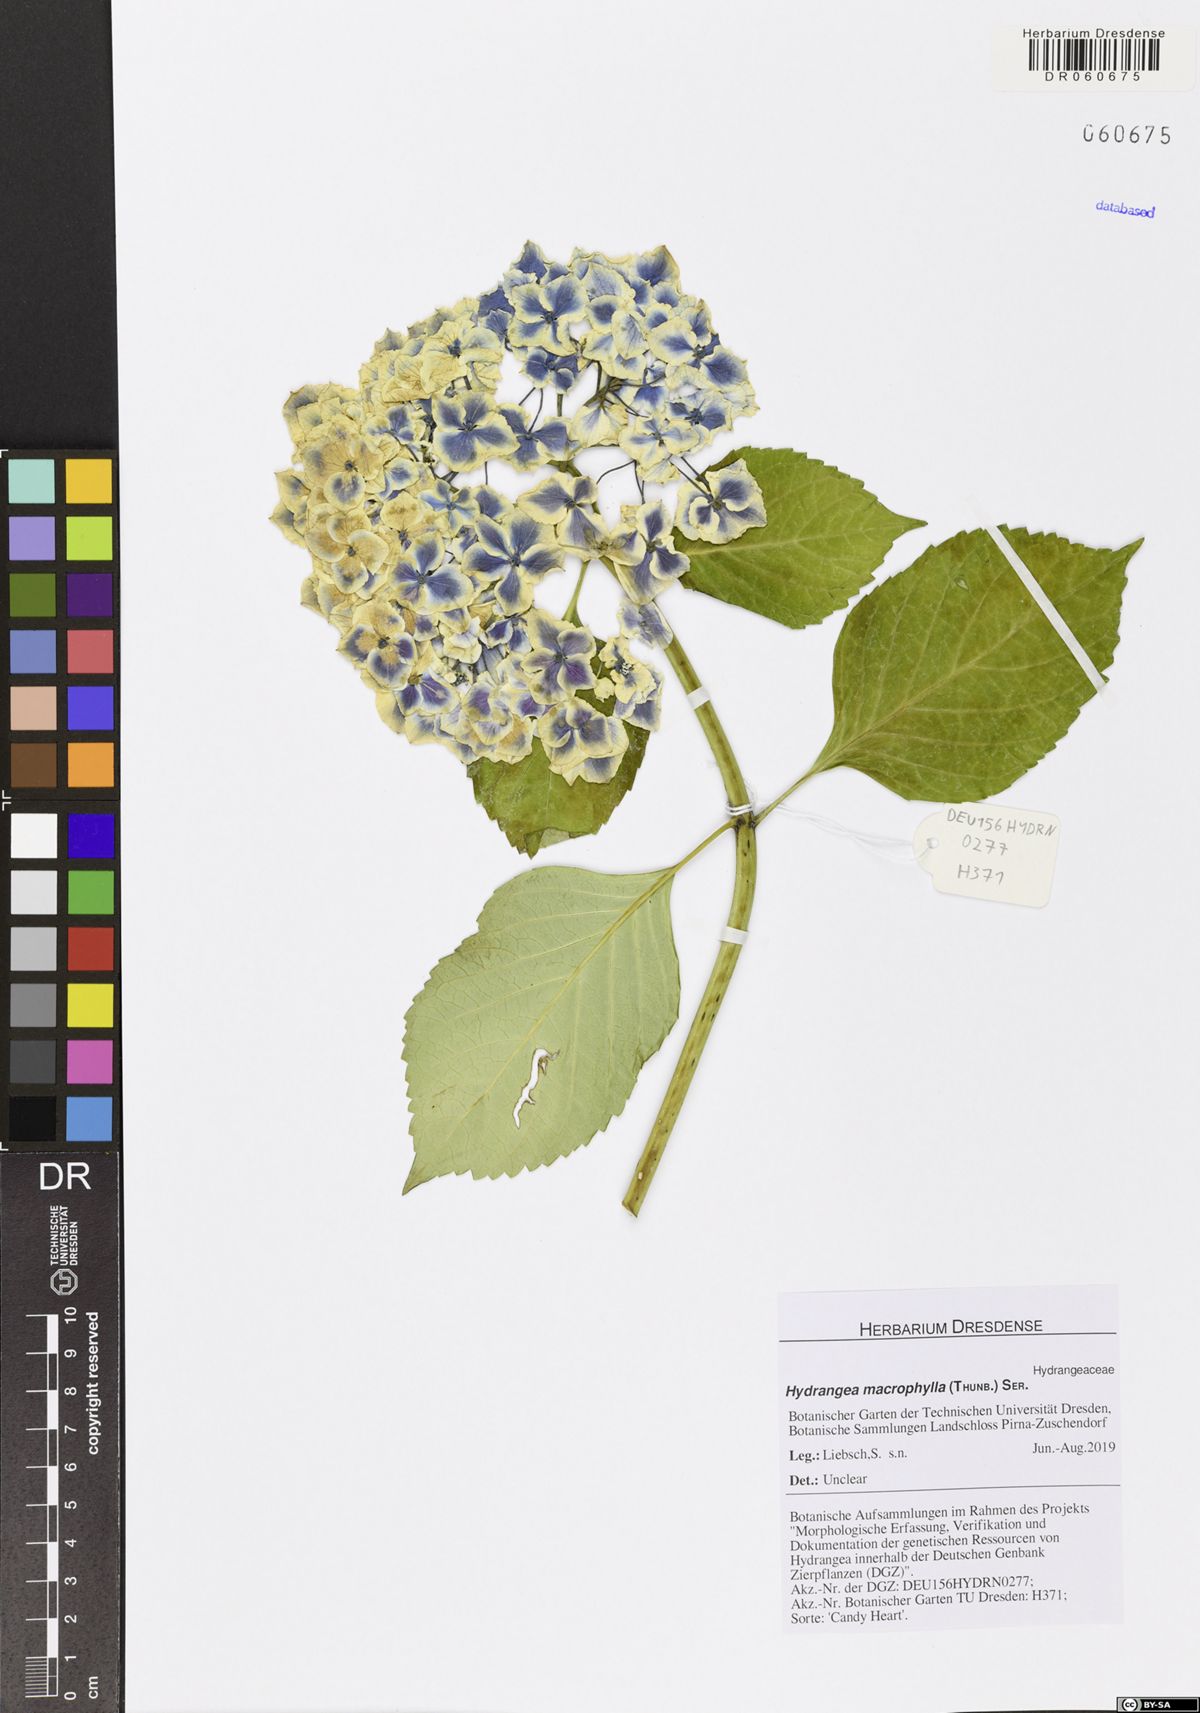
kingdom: Plantae
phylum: Tracheophyta
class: Magnoliopsida
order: Cornales
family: Hydrangeaceae
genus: Hydrangea
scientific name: Hydrangea macrophylla
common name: Hydrangea
